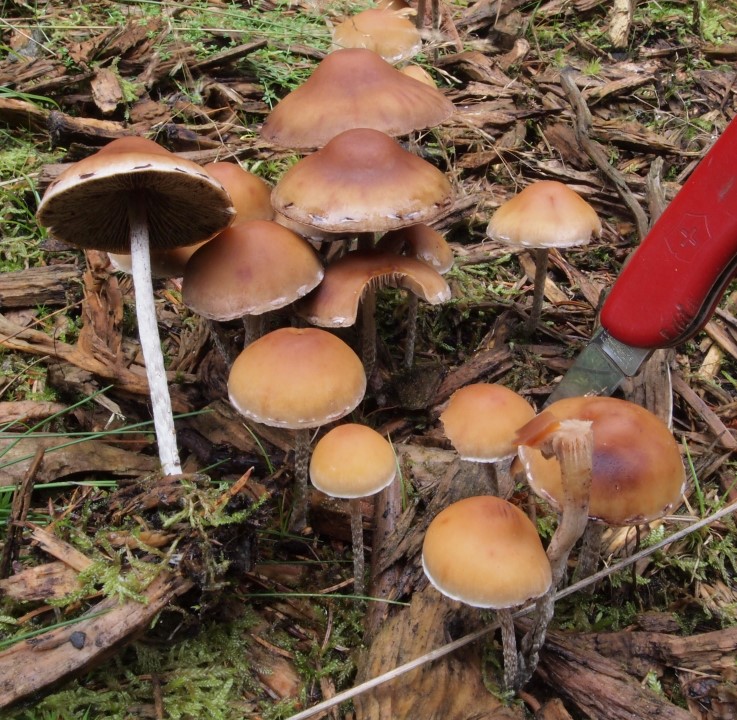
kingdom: Fungi
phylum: Basidiomycota
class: Agaricomycetes
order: Agaricales
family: Strophariaceae
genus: Hypholoma
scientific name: Hypholoma marginatum
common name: enlig svovlhat
